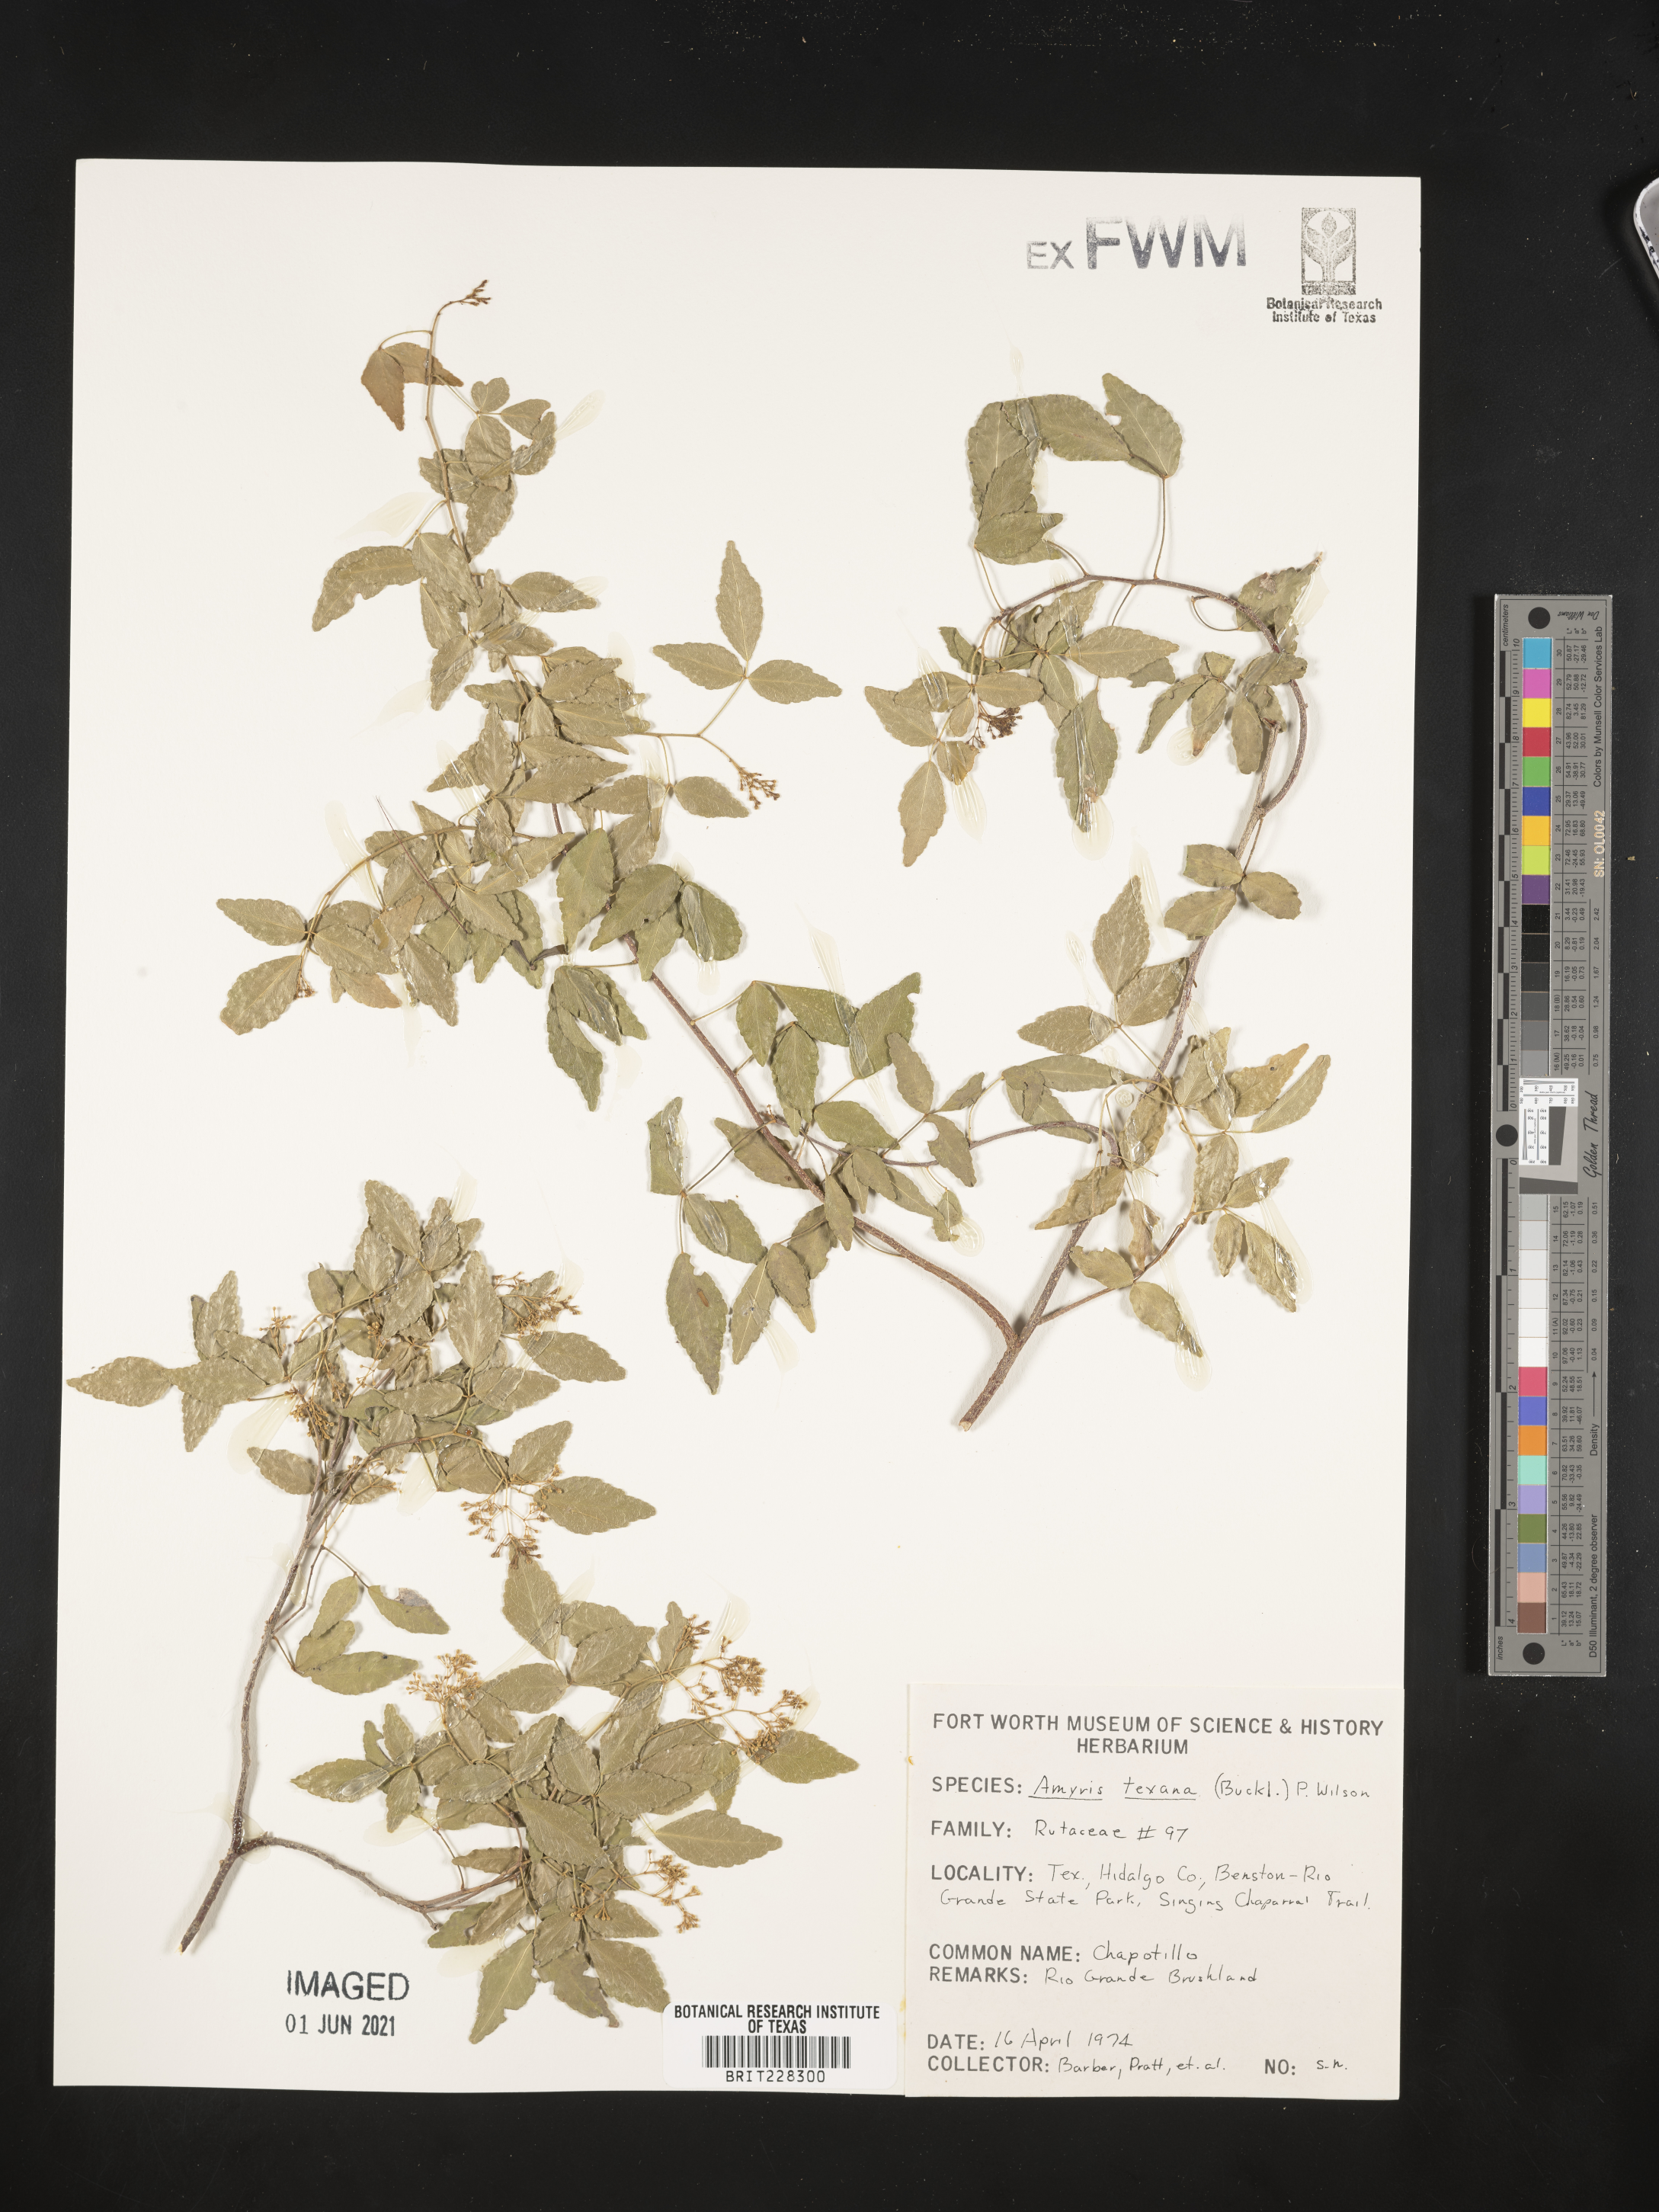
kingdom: Plantae
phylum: Tracheophyta
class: Magnoliopsida
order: Sapindales
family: Rutaceae
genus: Amyris
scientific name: Amyris texana
